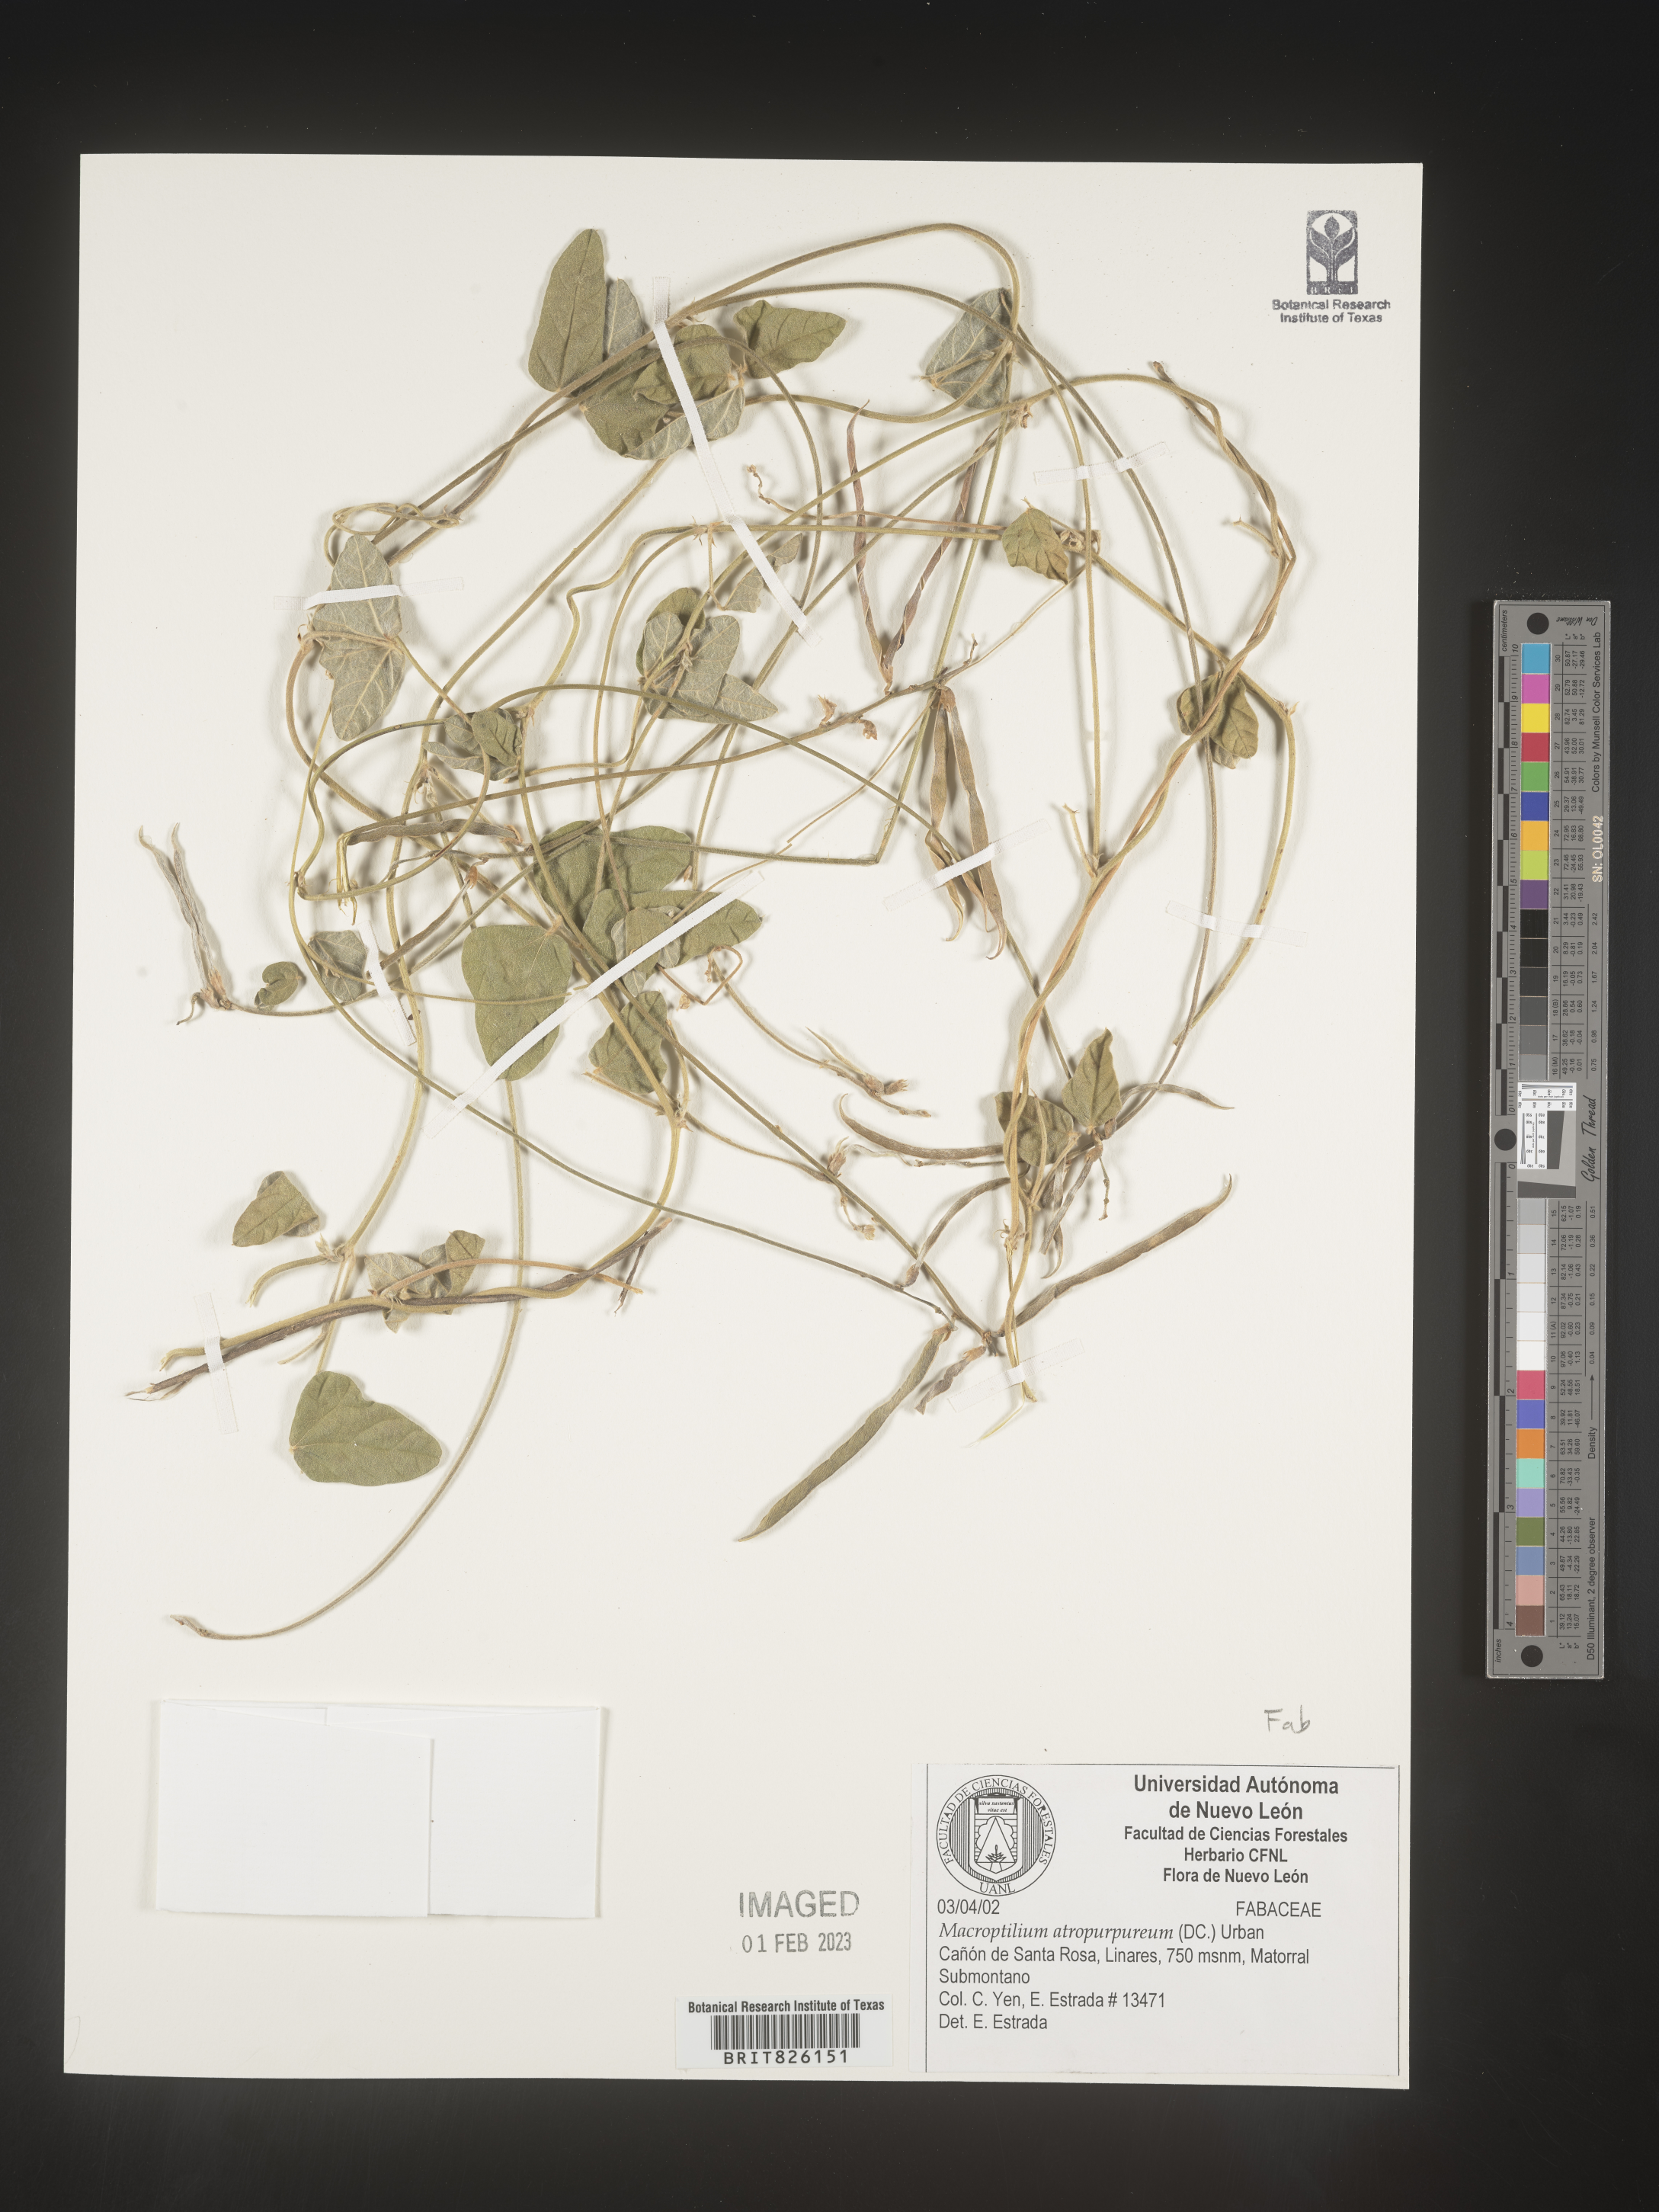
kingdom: Plantae
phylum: Tracheophyta
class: Magnoliopsida
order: Fabales
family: Fabaceae
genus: Macroptilium
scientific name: Macroptilium
